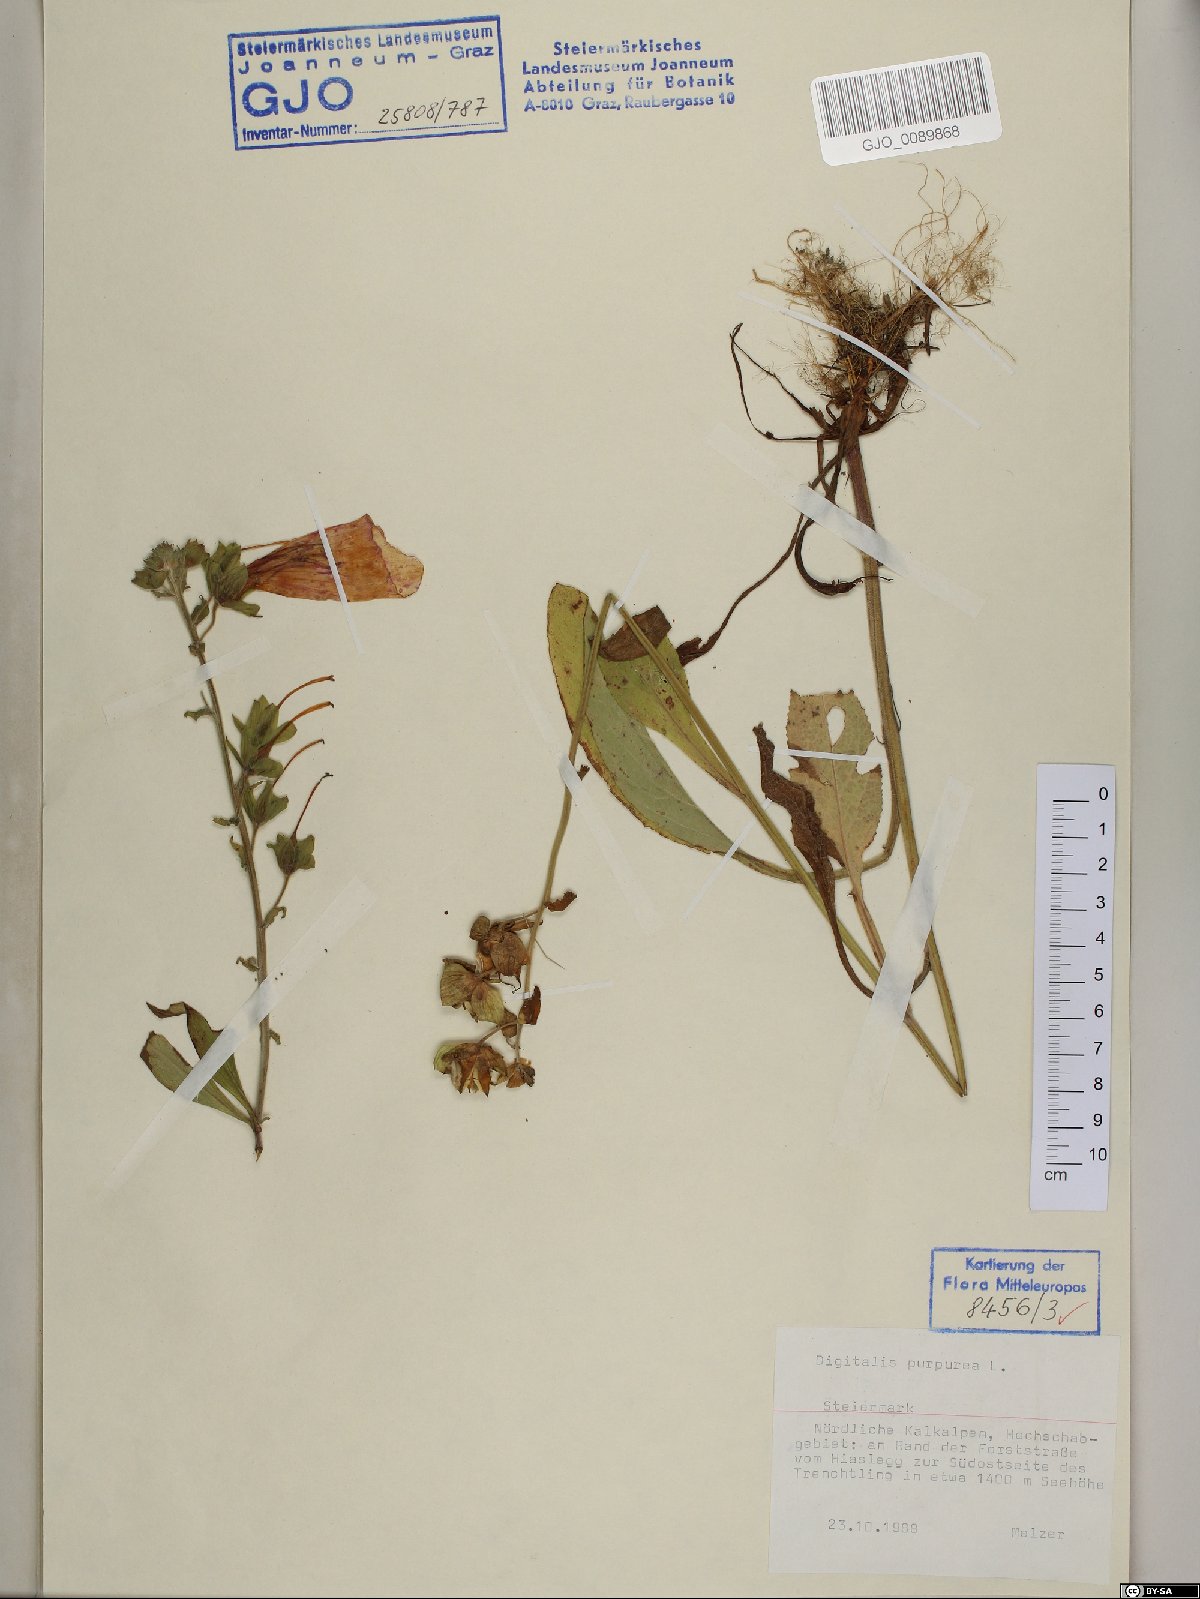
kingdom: Plantae
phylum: Tracheophyta
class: Magnoliopsida
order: Lamiales
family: Plantaginaceae
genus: Digitalis
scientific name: Digitalis purpurea
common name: Foxglove
